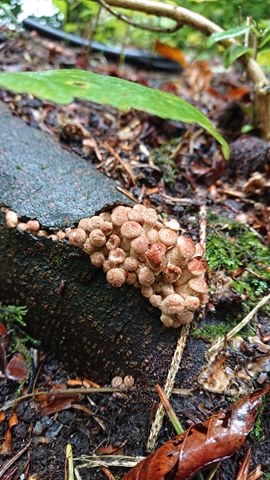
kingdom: Fungi
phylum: Basidiomycota
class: Agaricomycetes
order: Agaricales
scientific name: Agaricales
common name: champignonordenen
